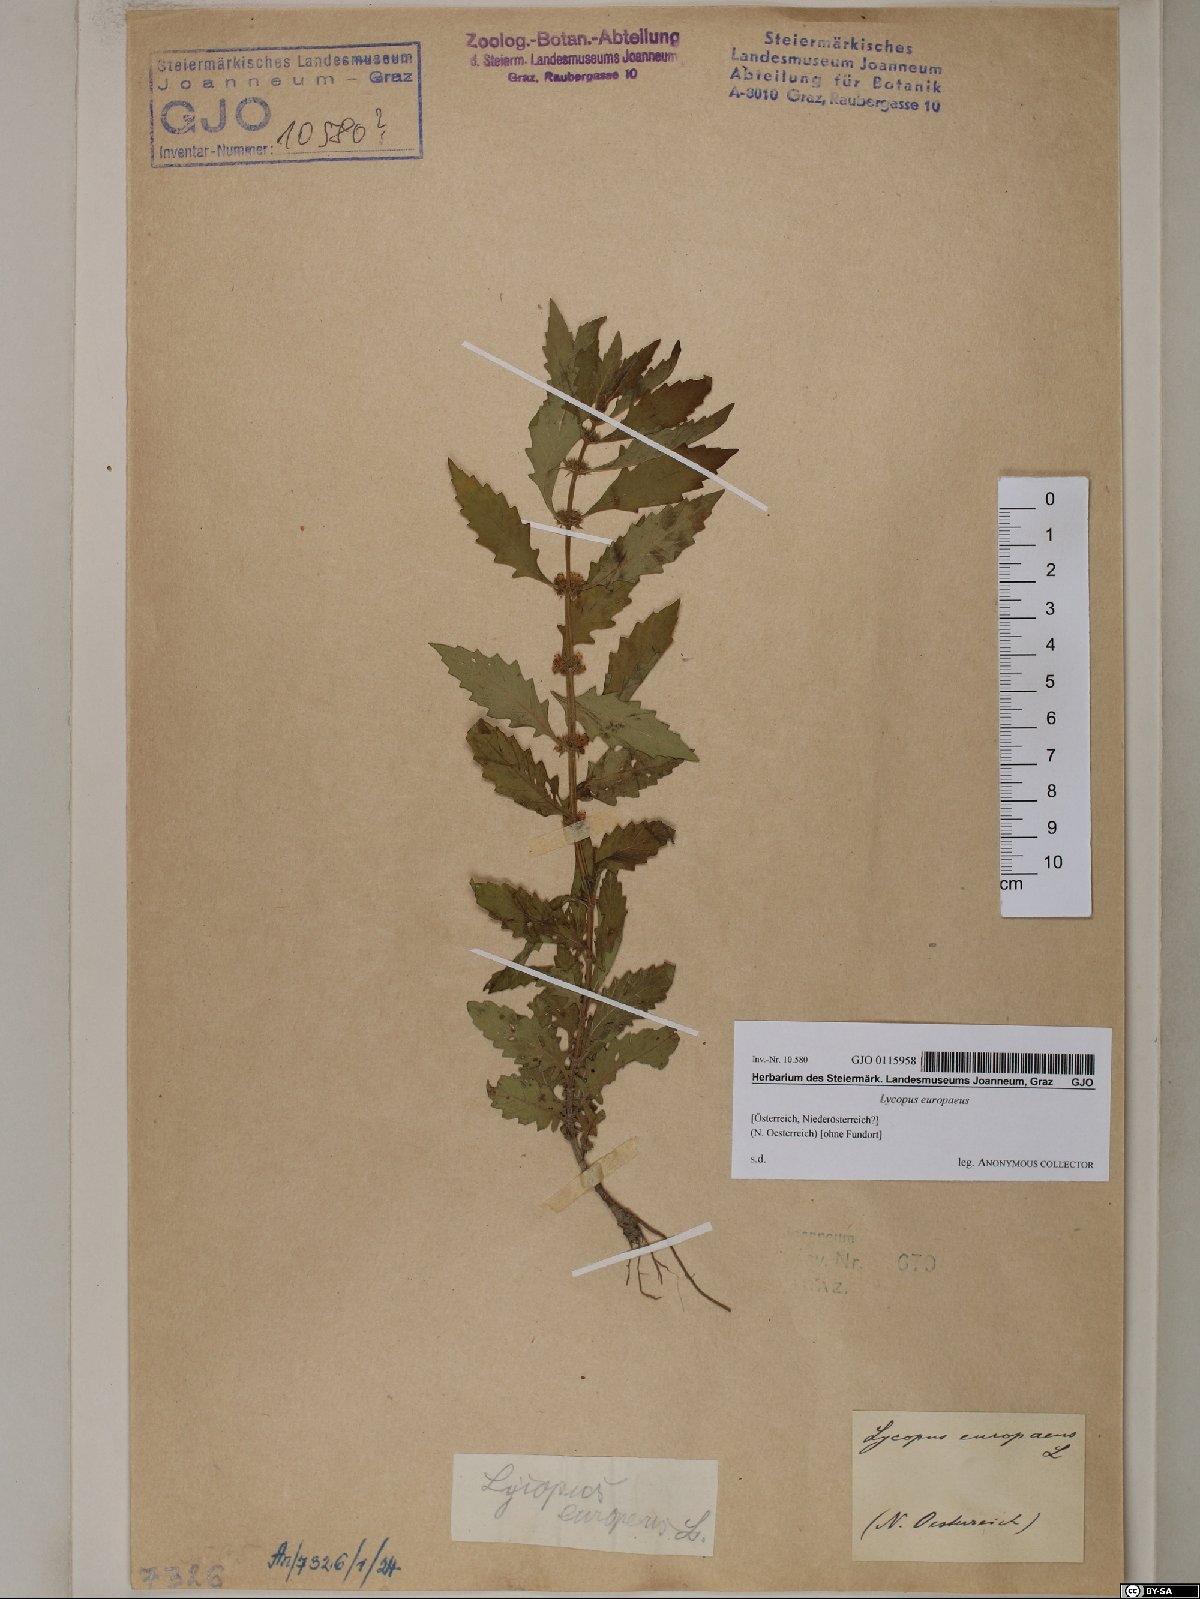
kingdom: Plantae
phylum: Tracheophyta
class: Magnoliopsida
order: Lamiales
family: Lamiaceae
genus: Lycopus
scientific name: Lycopus europaeus
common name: European bugleweed
